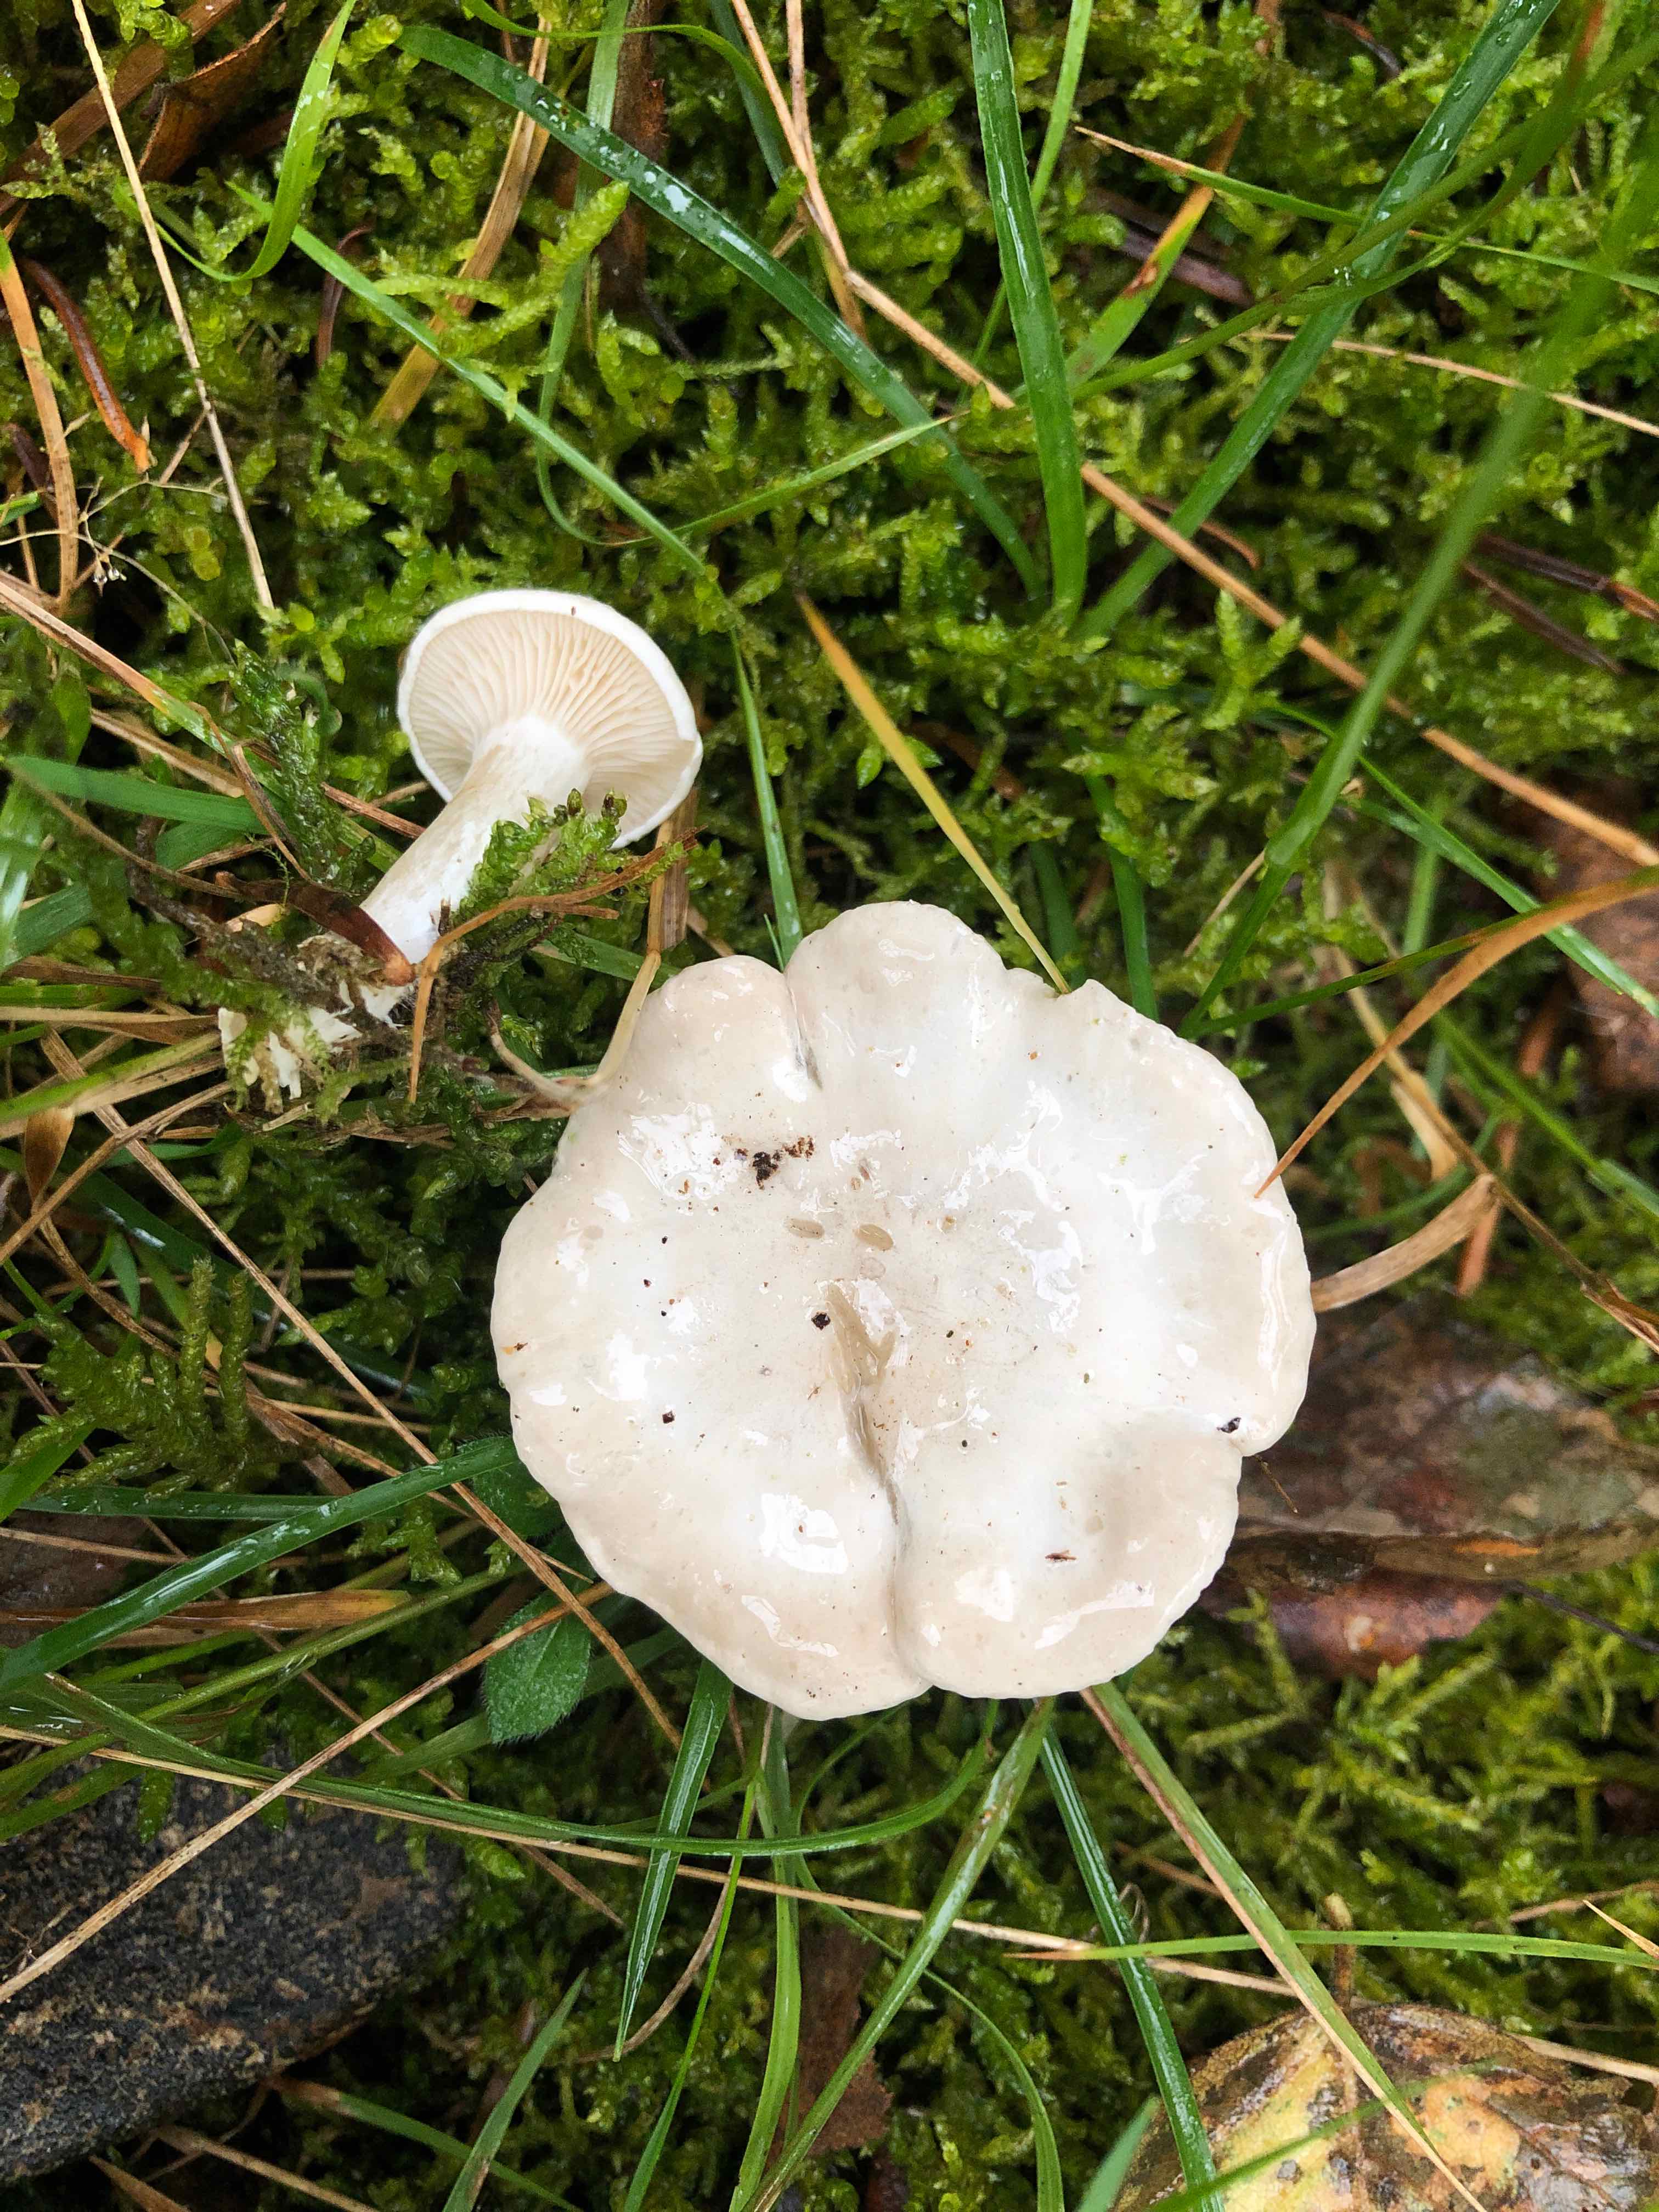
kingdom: Fungi
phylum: Basidiomycota
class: Agaricomycetes
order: Agaricales
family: Entolomataceae
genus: Clitopilus
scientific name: Clitopilus prunulus
